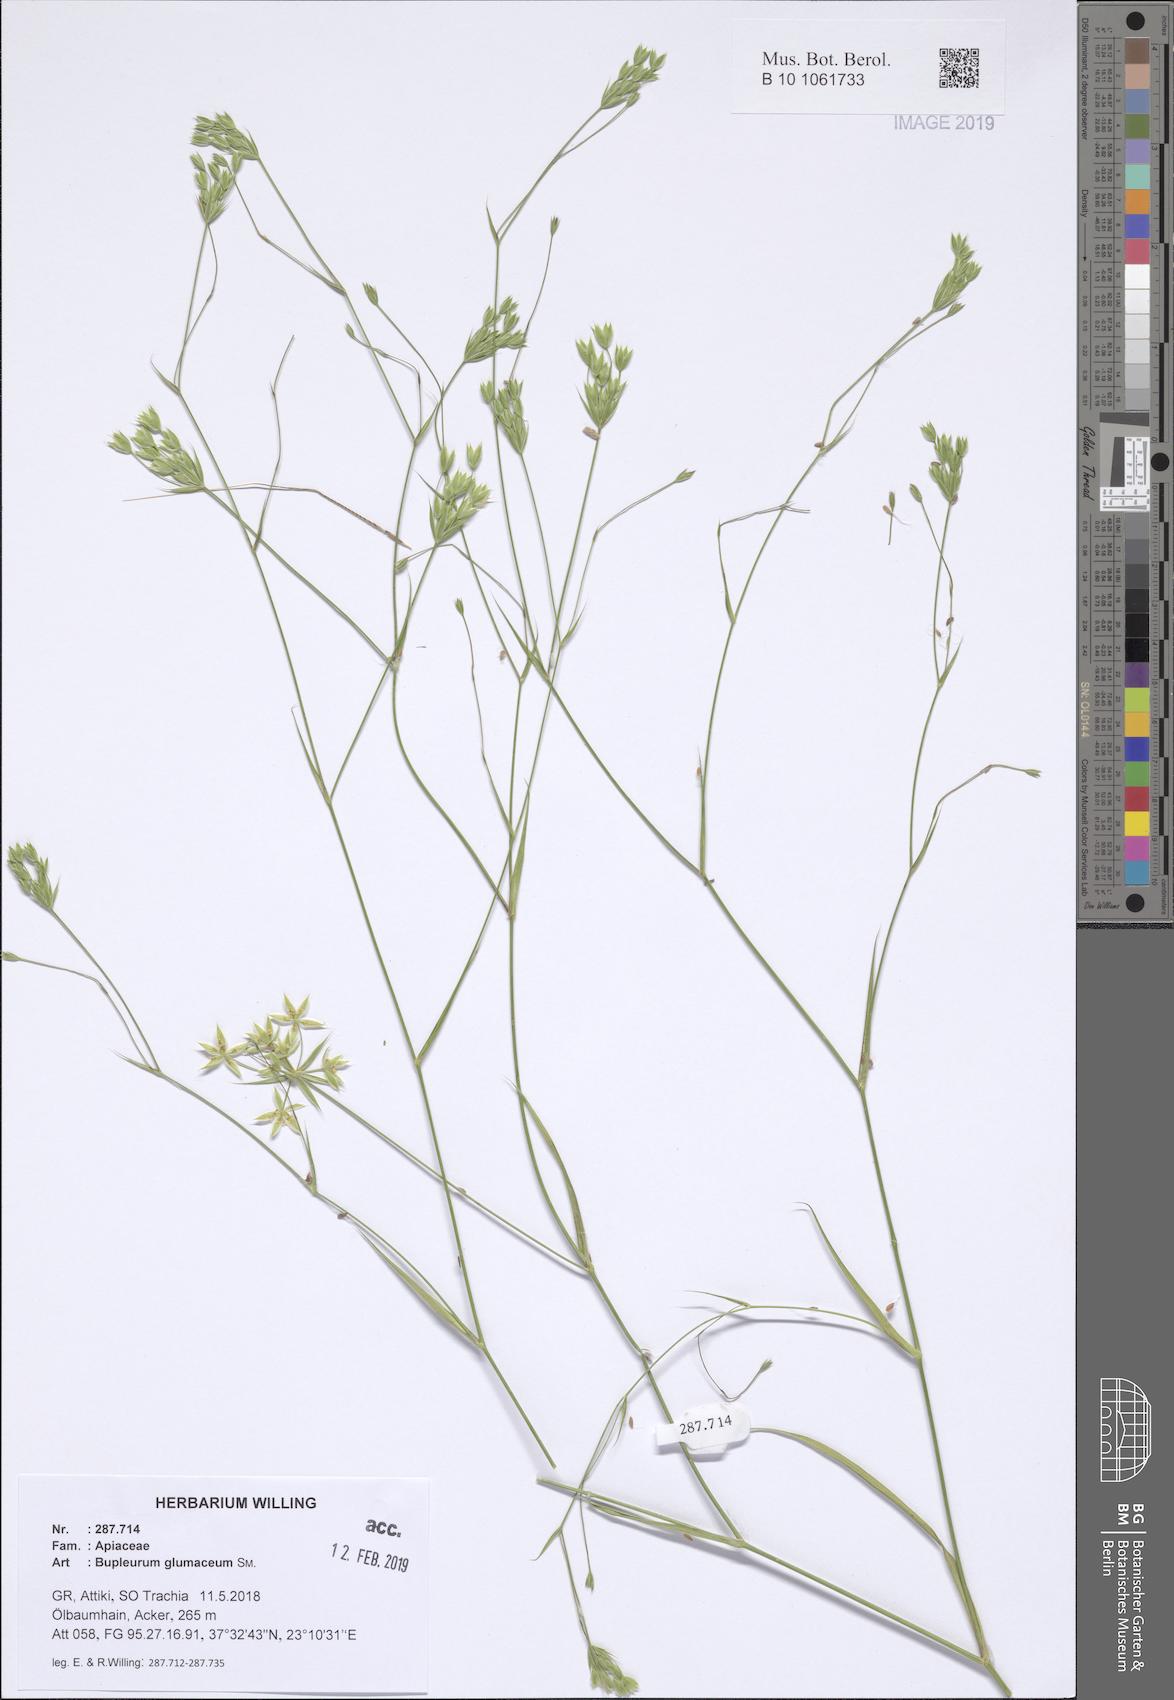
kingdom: Plantae
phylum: Tracheophyta
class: Magnoliopsida
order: Apiales
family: Apiaceae
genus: Bupleurum
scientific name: Bupleurum glumaceum
